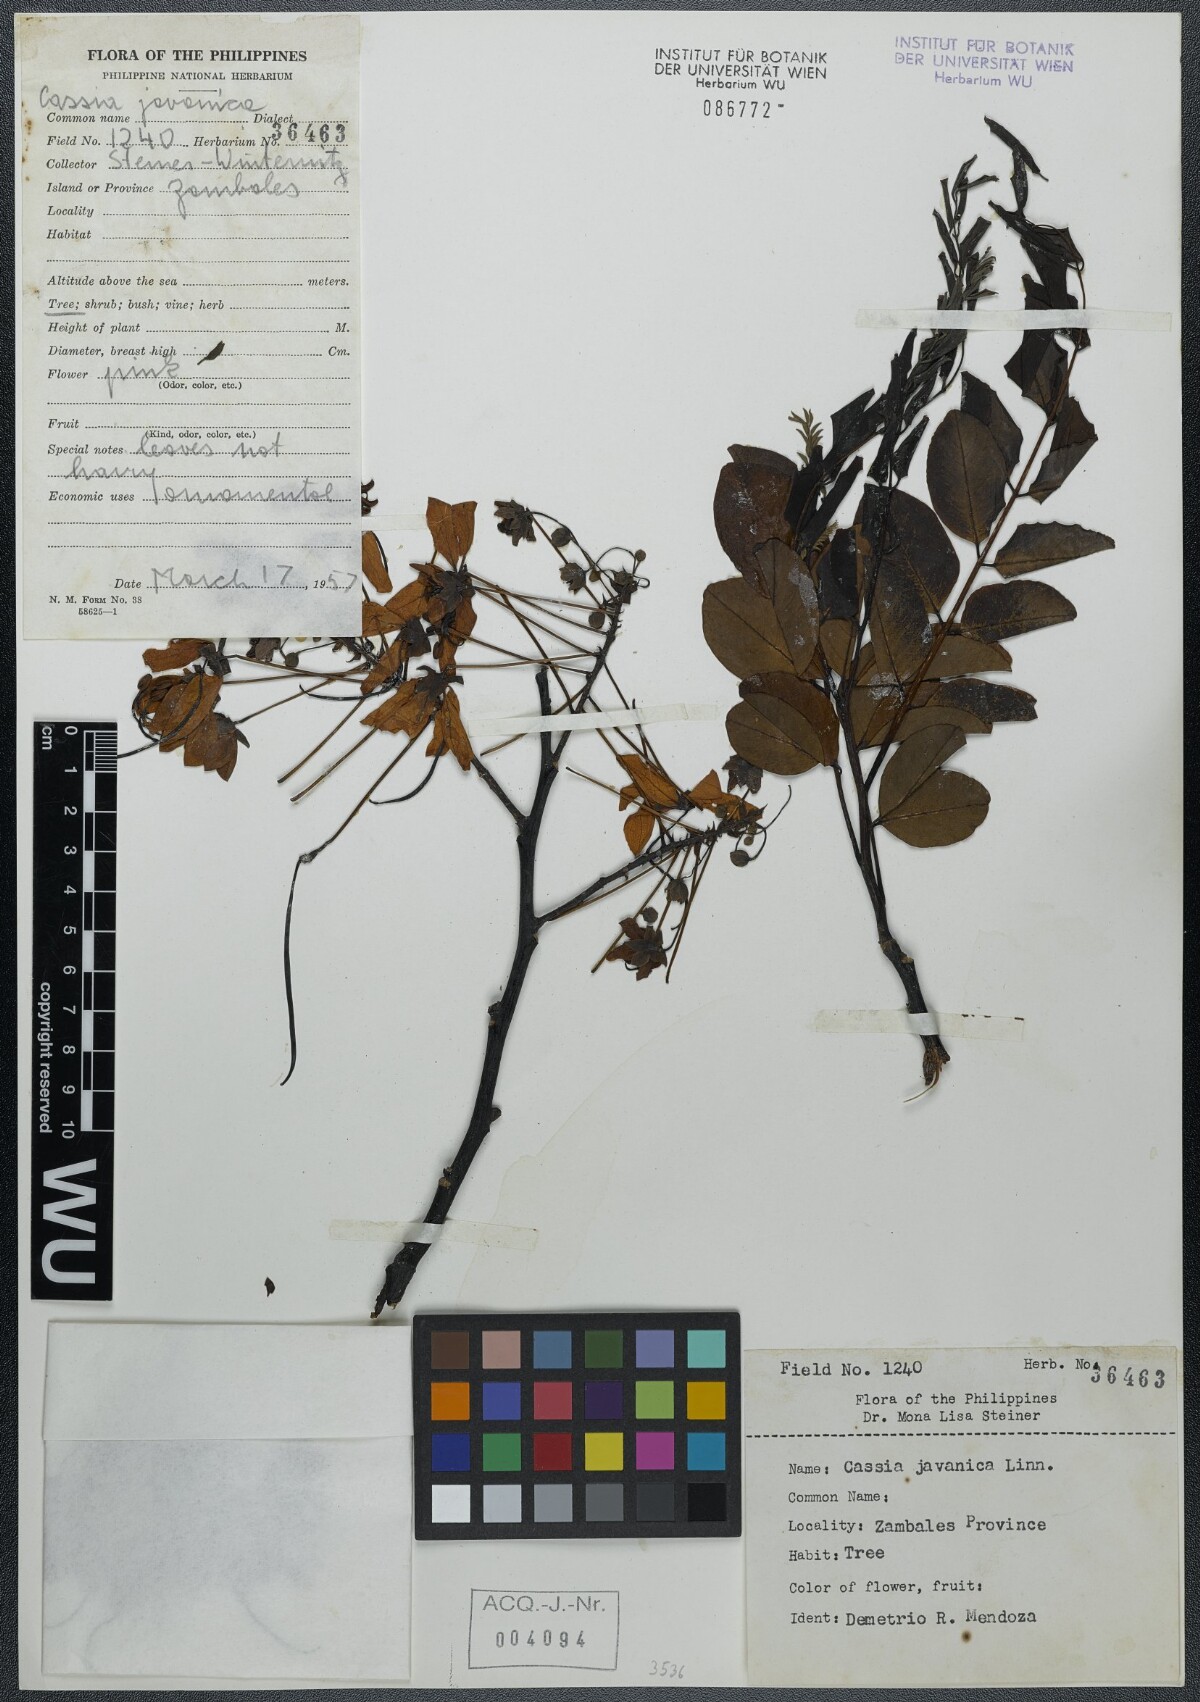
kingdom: Plantae
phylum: Tracheophyta
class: Magnoliopsida
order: Fabales
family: Fabaceae
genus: Cassia
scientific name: Cassia javanica
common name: Apple blossom
